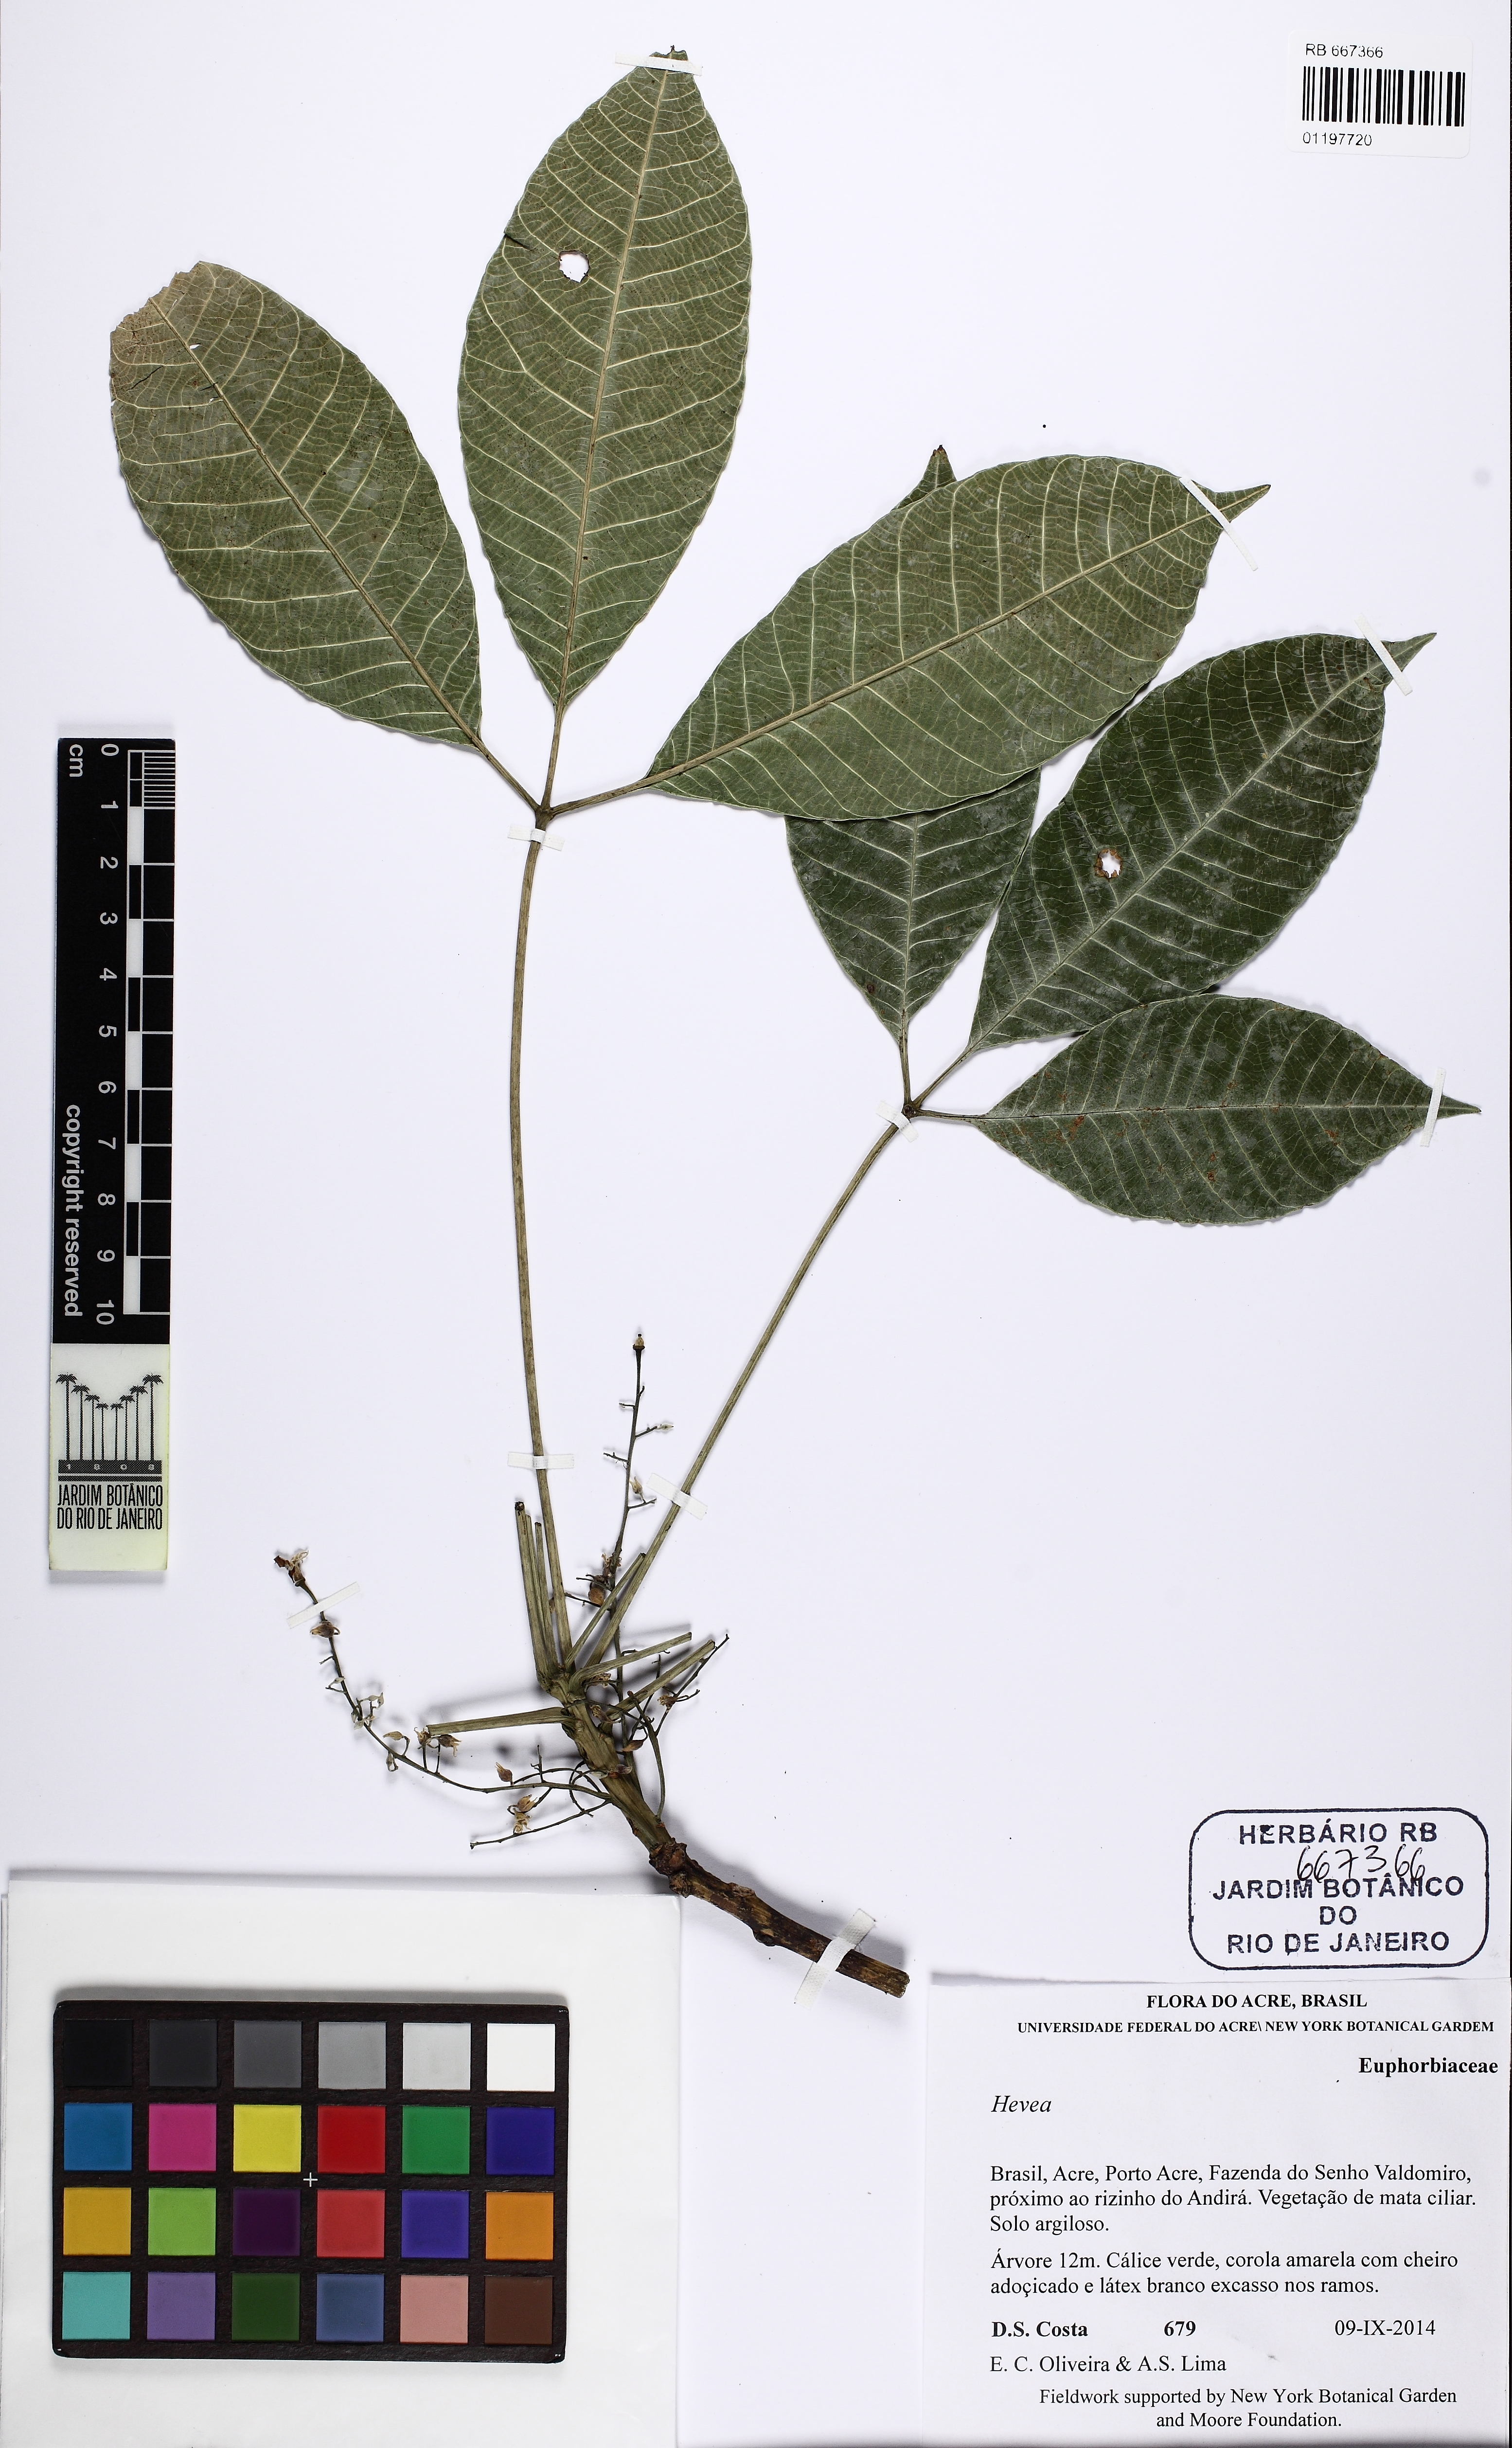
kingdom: Plantae
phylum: Tracheophyta
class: Magnoliopsida
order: Malpighiales
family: Euphorbiaceae
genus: Hevea
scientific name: Hevea
